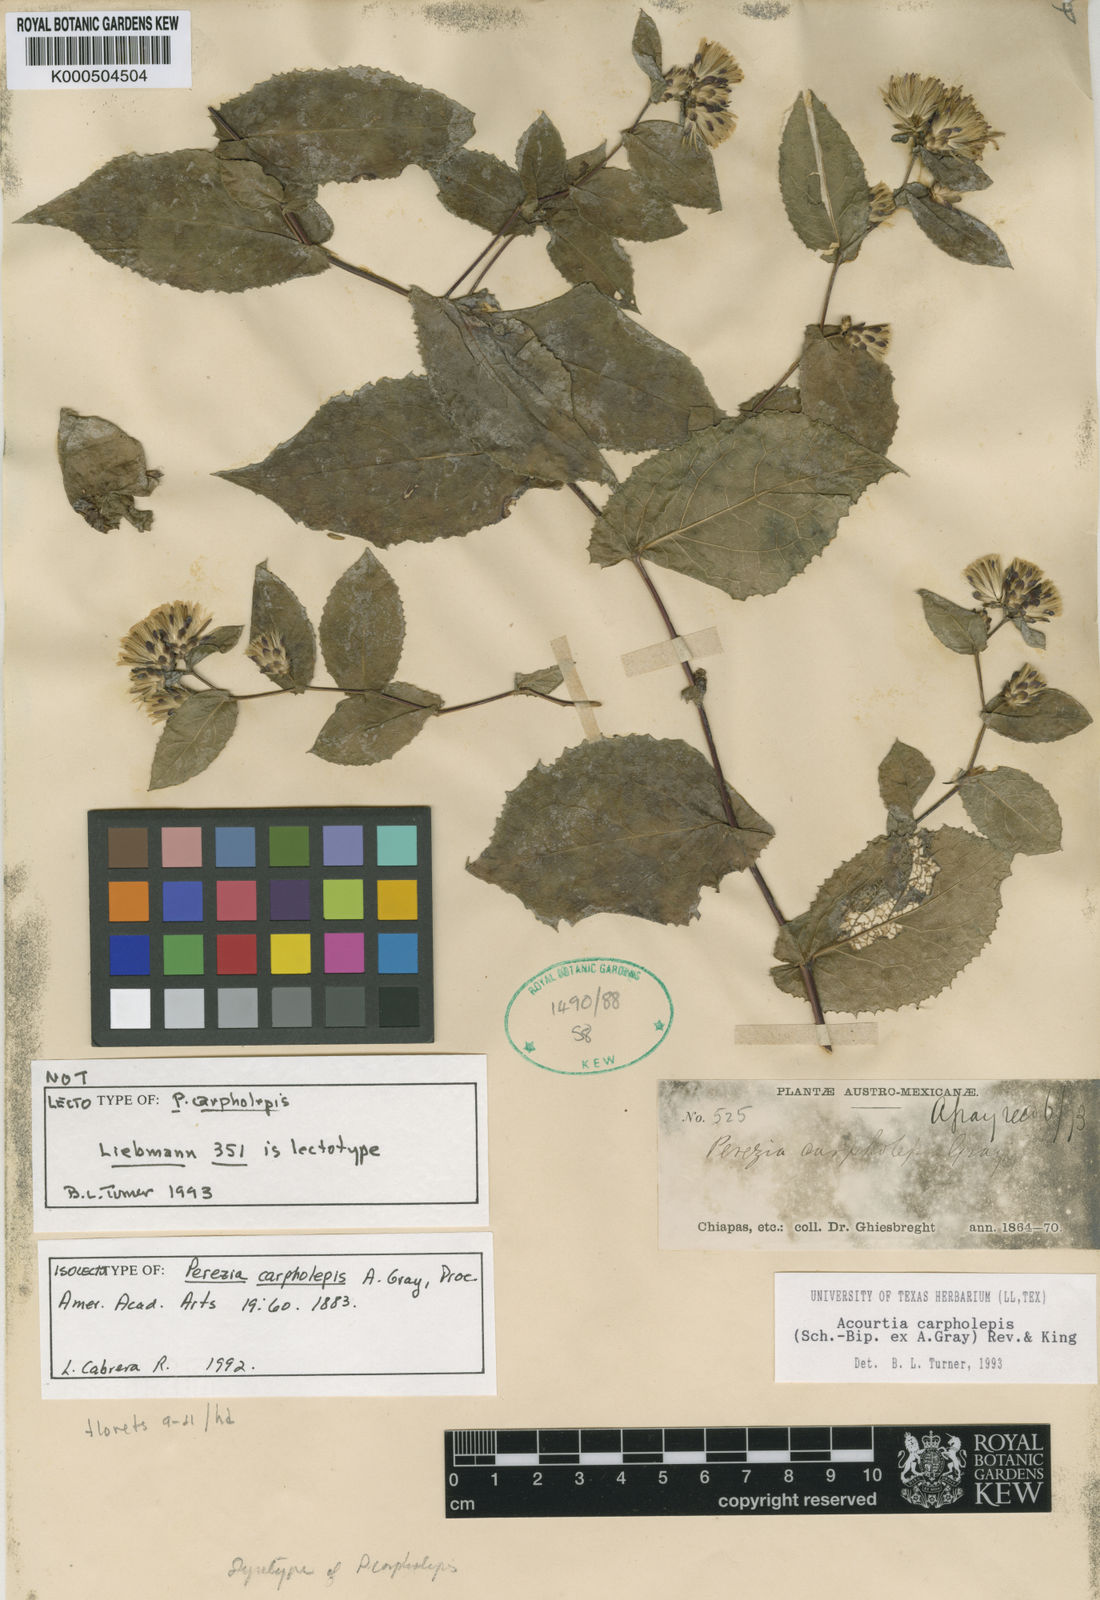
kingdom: Plantae
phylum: Tracheophyta
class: Magnoliopsida
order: Asterales
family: Asteraceae
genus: Acourtia
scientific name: Acourtia carpholepis
